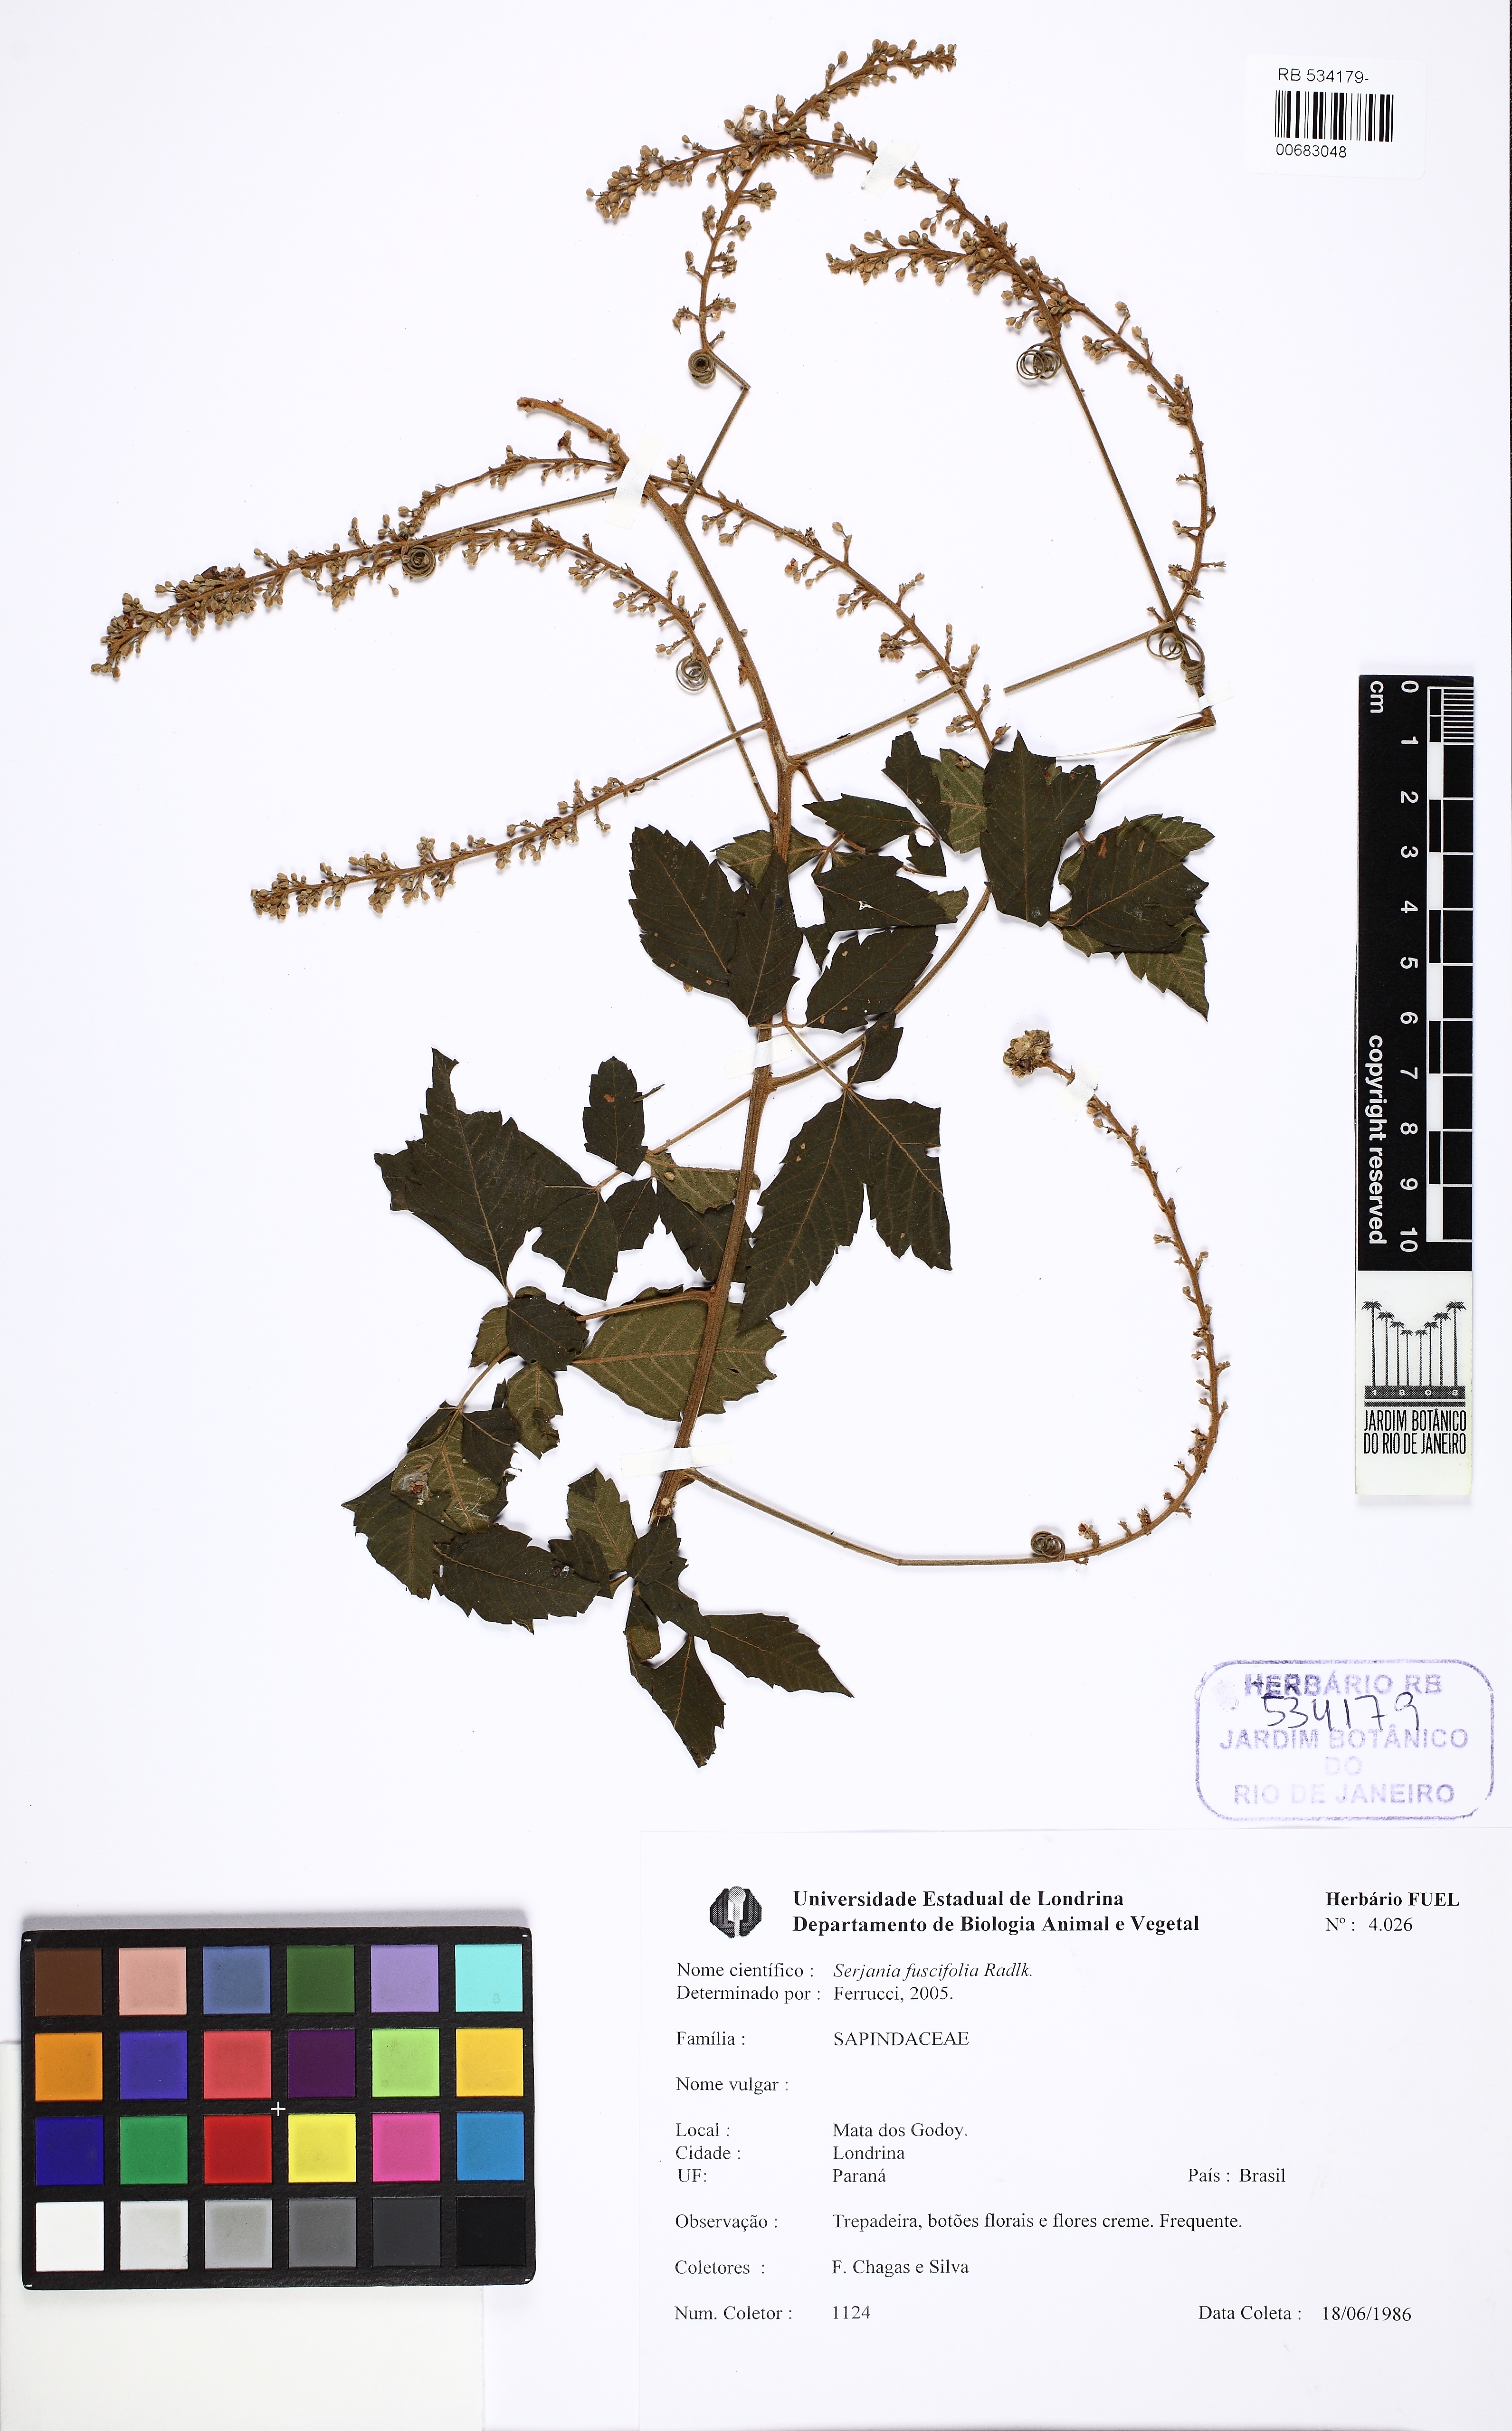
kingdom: Plantae
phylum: Tracheophyta
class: Magnoliopsida
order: Sapindales
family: Sapindaceae
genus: Serjania
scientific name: Serjania fuscifolia
